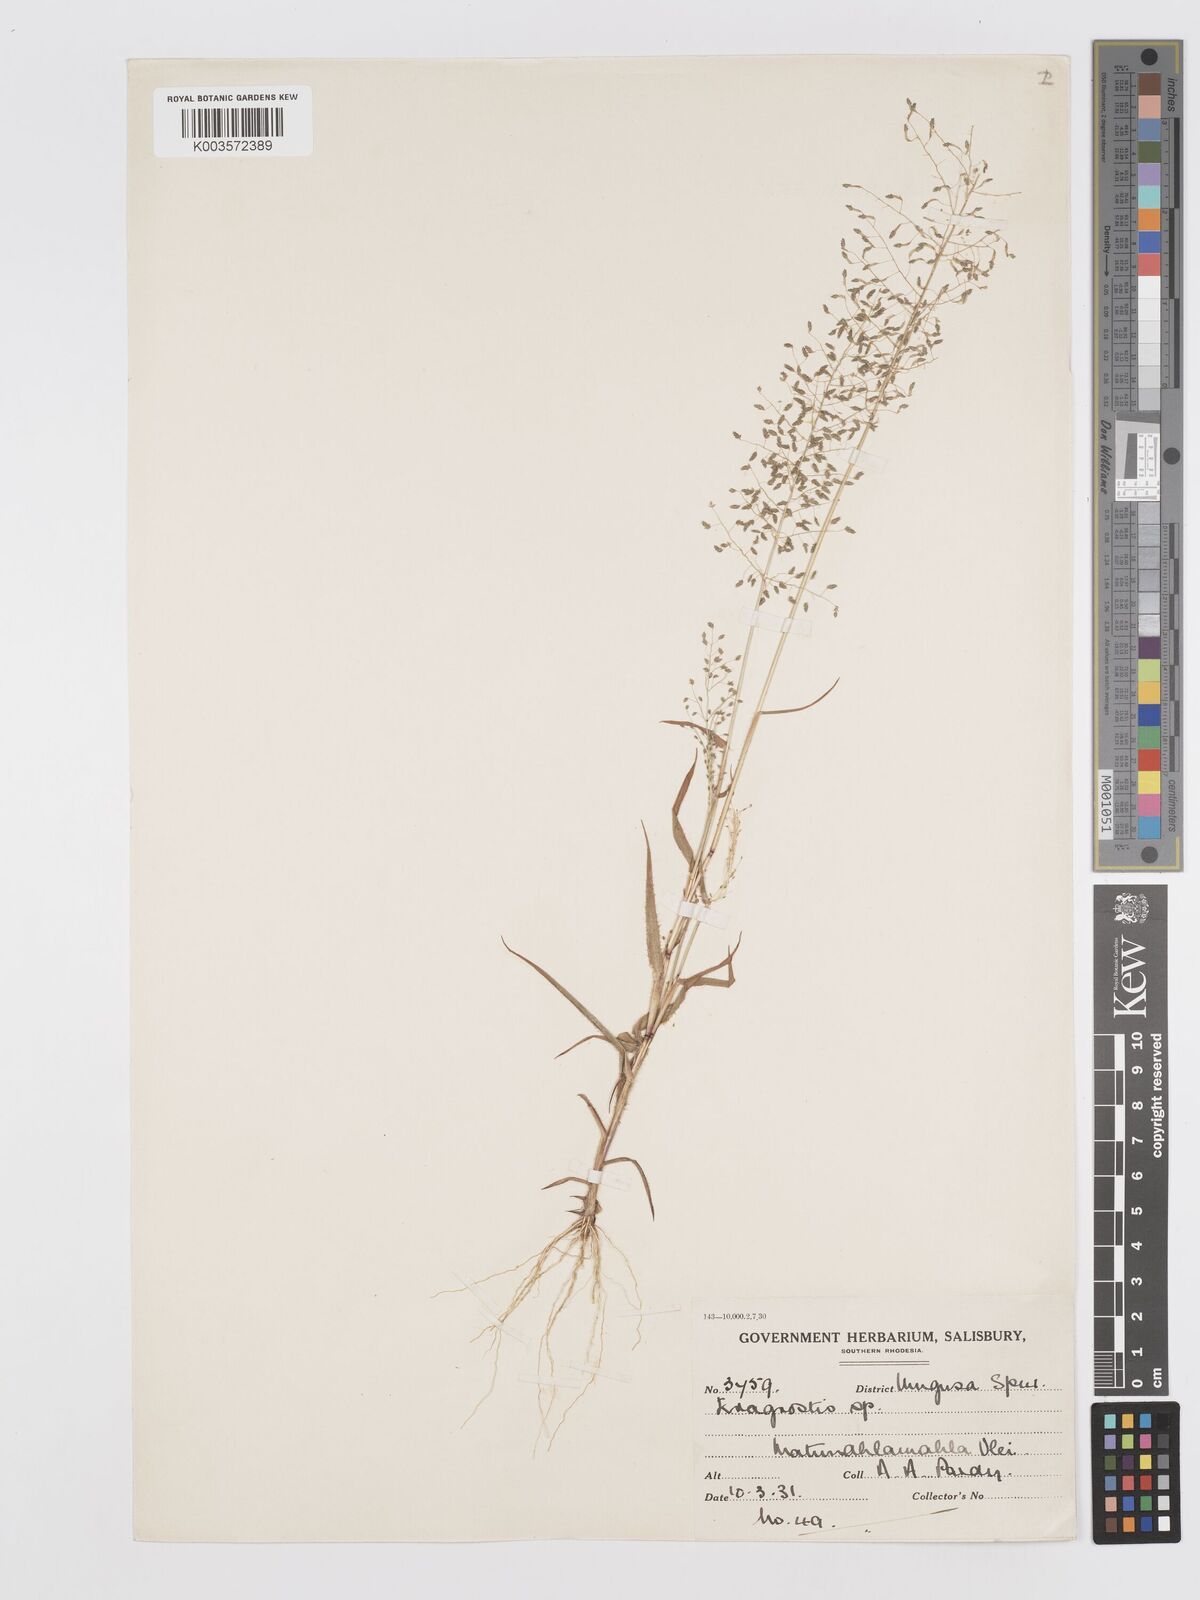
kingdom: Plantae
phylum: Tracheophyta
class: Liliopsida
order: Poales
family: Poaceae
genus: Eragrostis
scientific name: Eragrostis venustula
